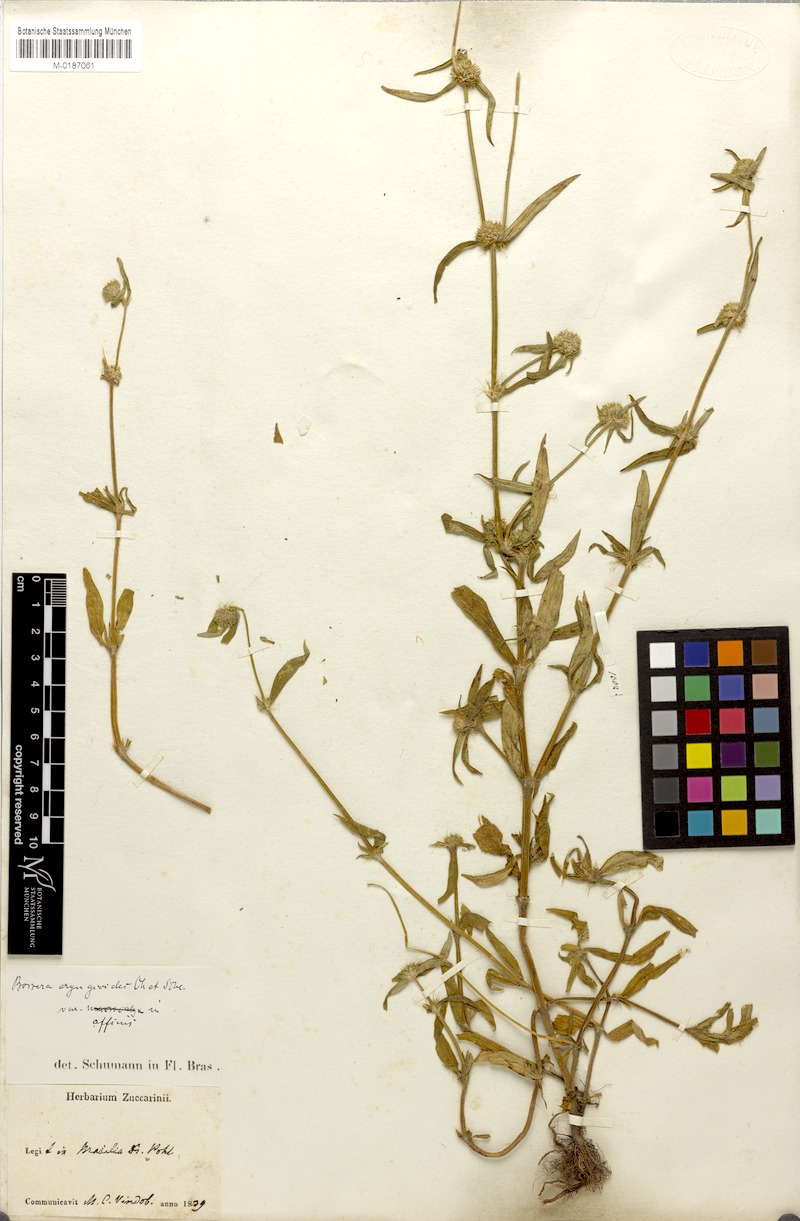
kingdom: Plantae
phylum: Tracheophyta
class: Magnoliopsida
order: Gentianales
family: Rubiaceae
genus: Spermacoce
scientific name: Spermacoce eryngioides
